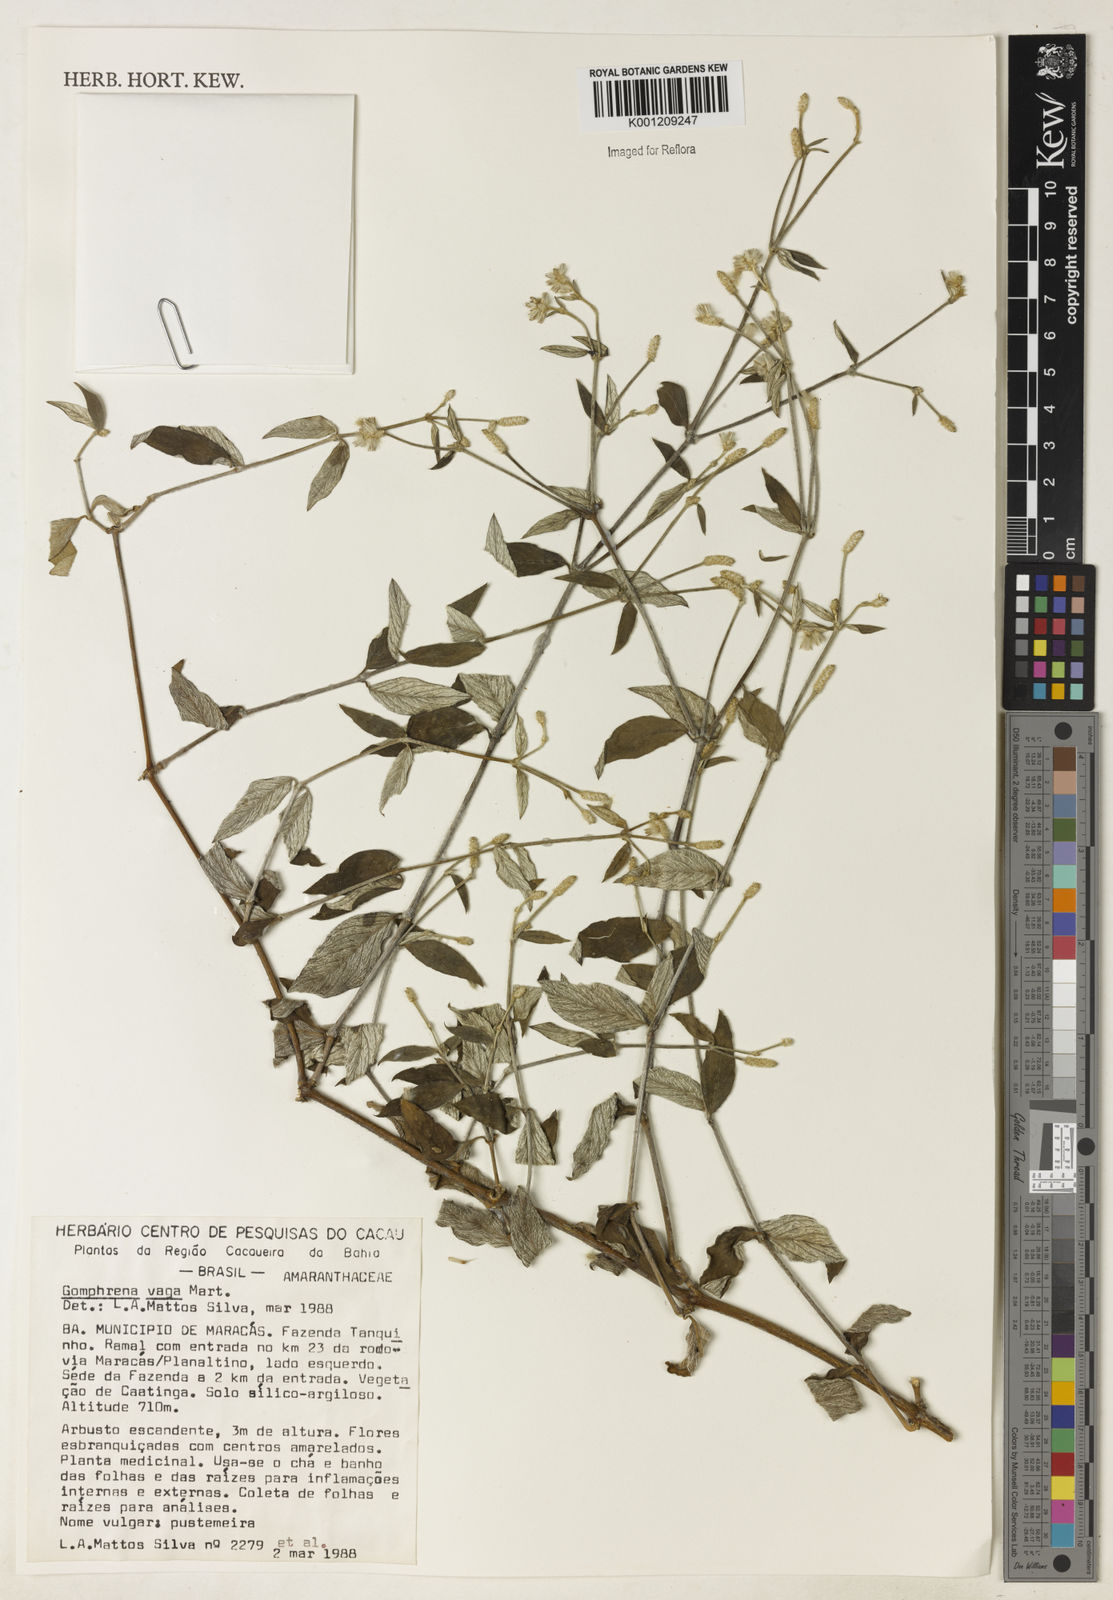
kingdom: Plantae
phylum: Tracheophyta
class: Magnoliopsida
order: Caryophyllales
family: Amaranthaceae
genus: Gomphrena
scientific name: Gomphrena vaga
